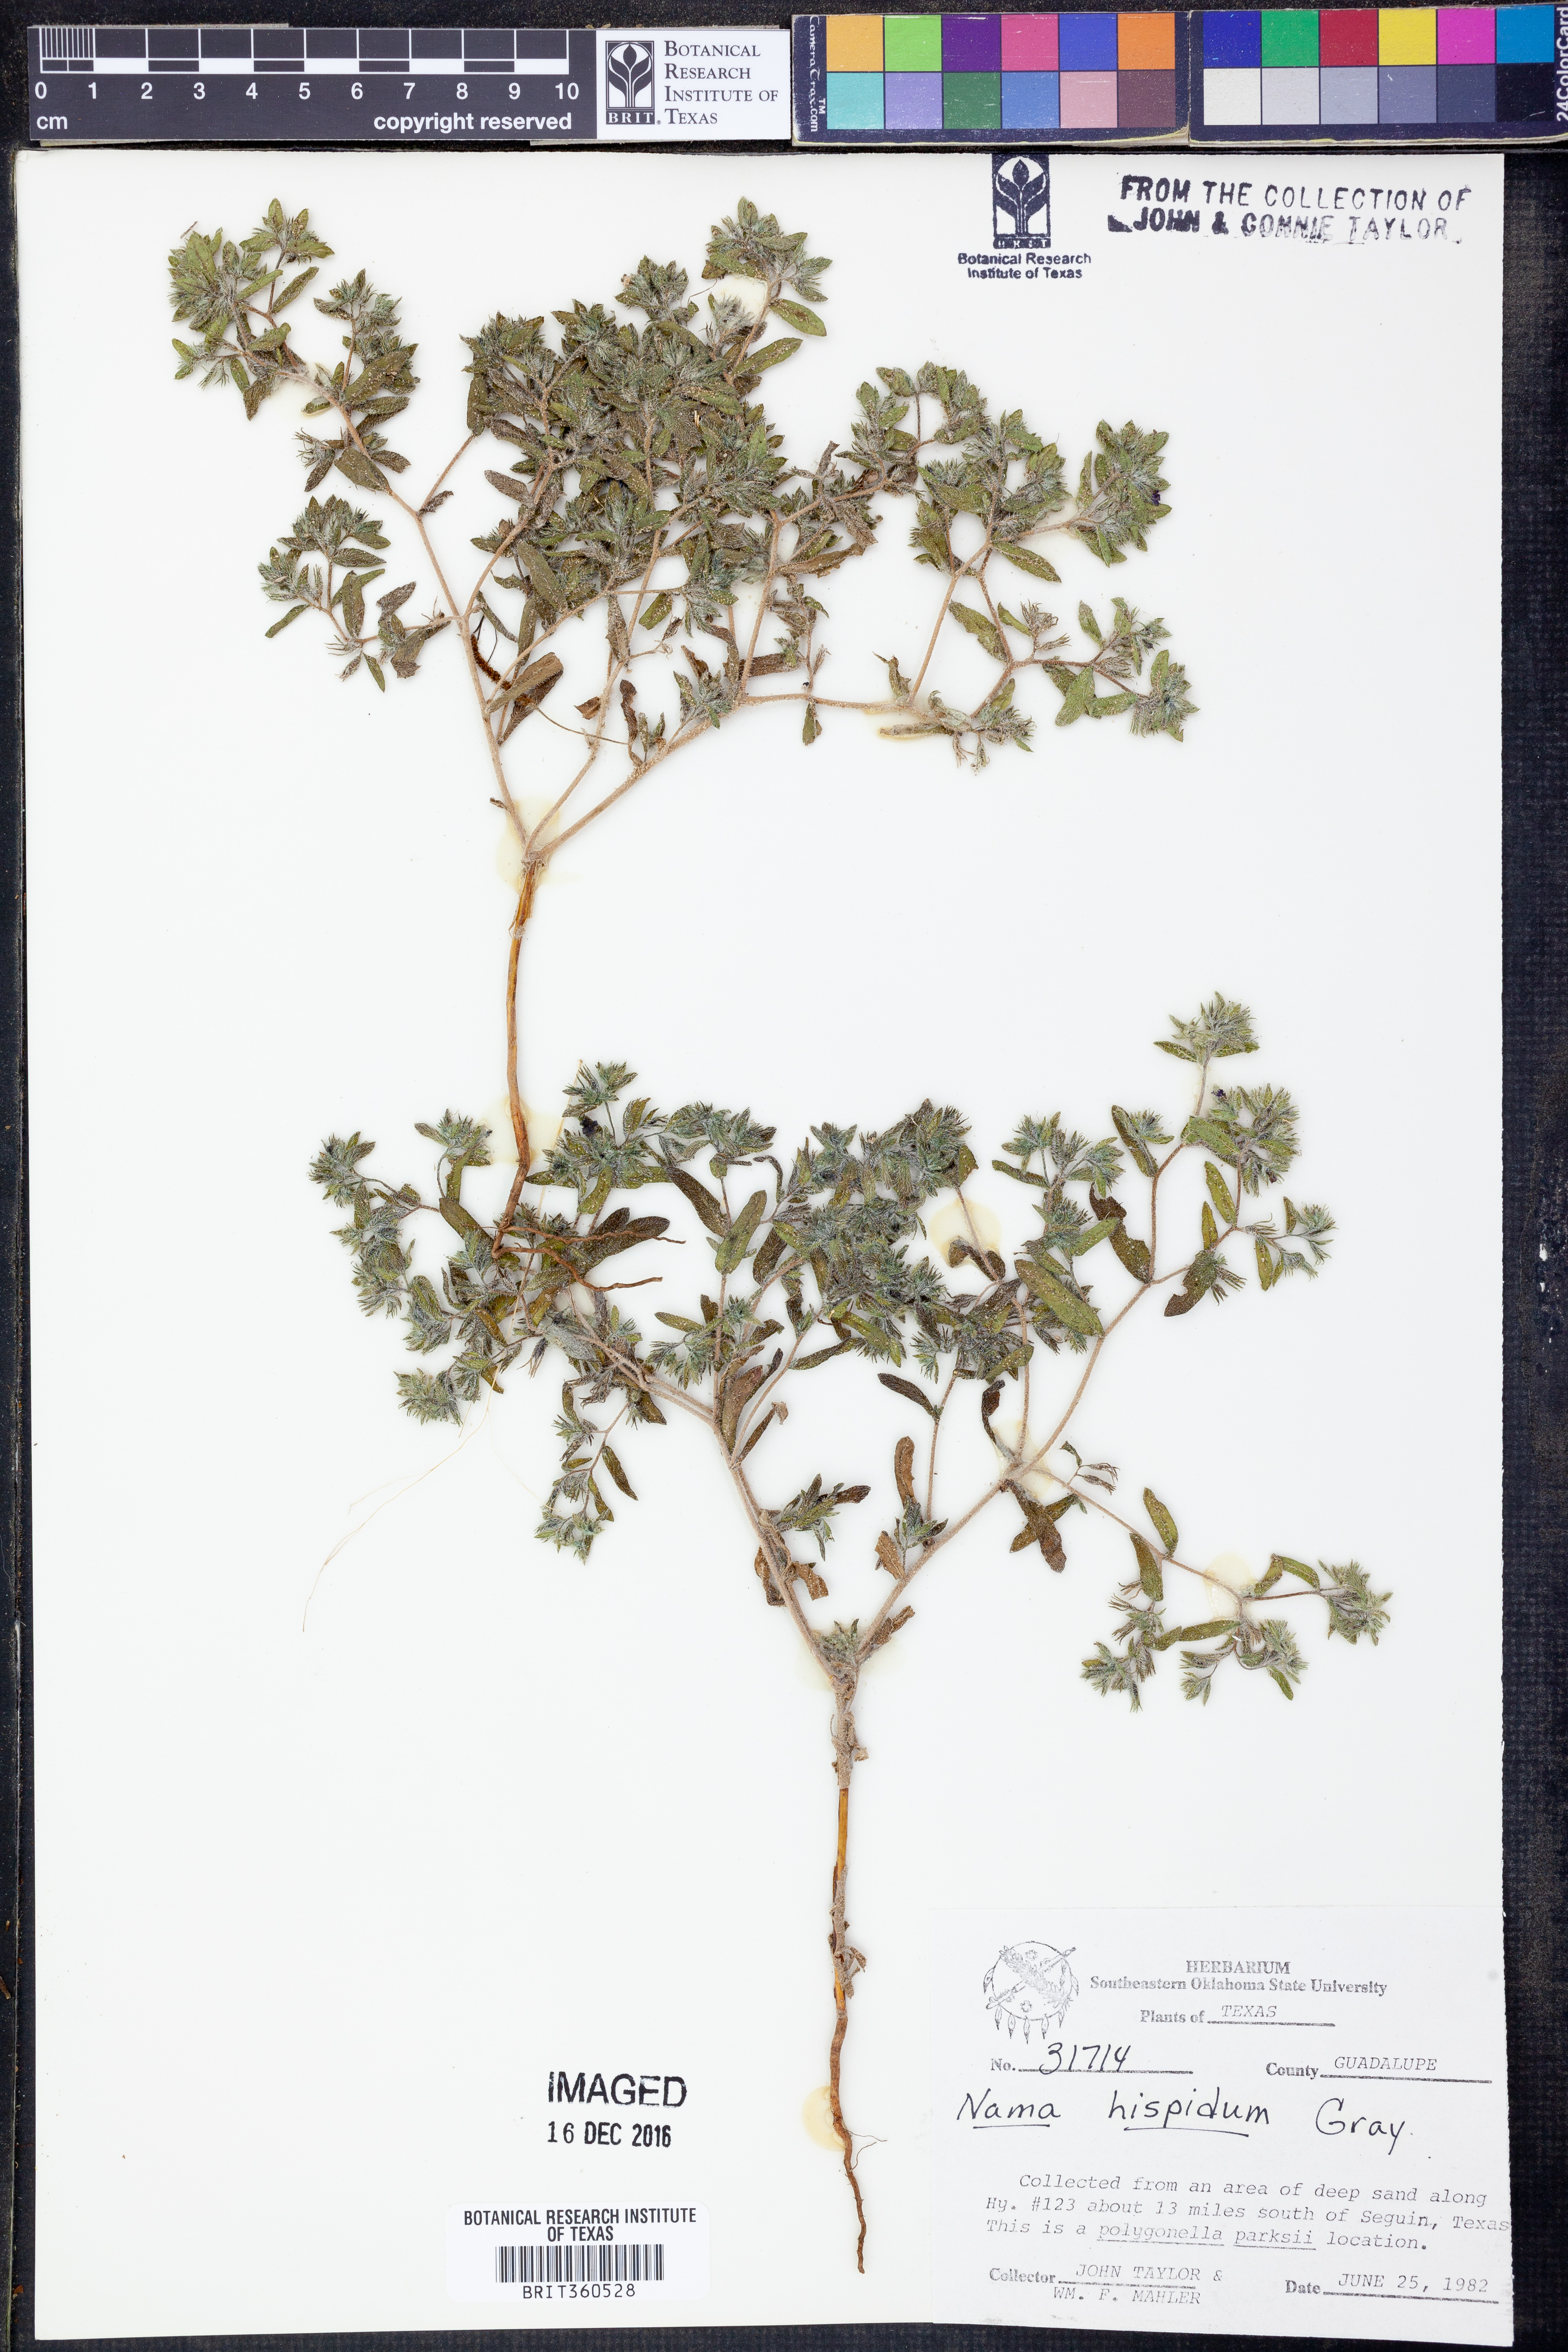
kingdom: Plantae
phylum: Tracheophyta
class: Magnoliopsida
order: Boraginales
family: Namaceae
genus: Nama
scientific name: Nama hispida
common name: Bristly nama
